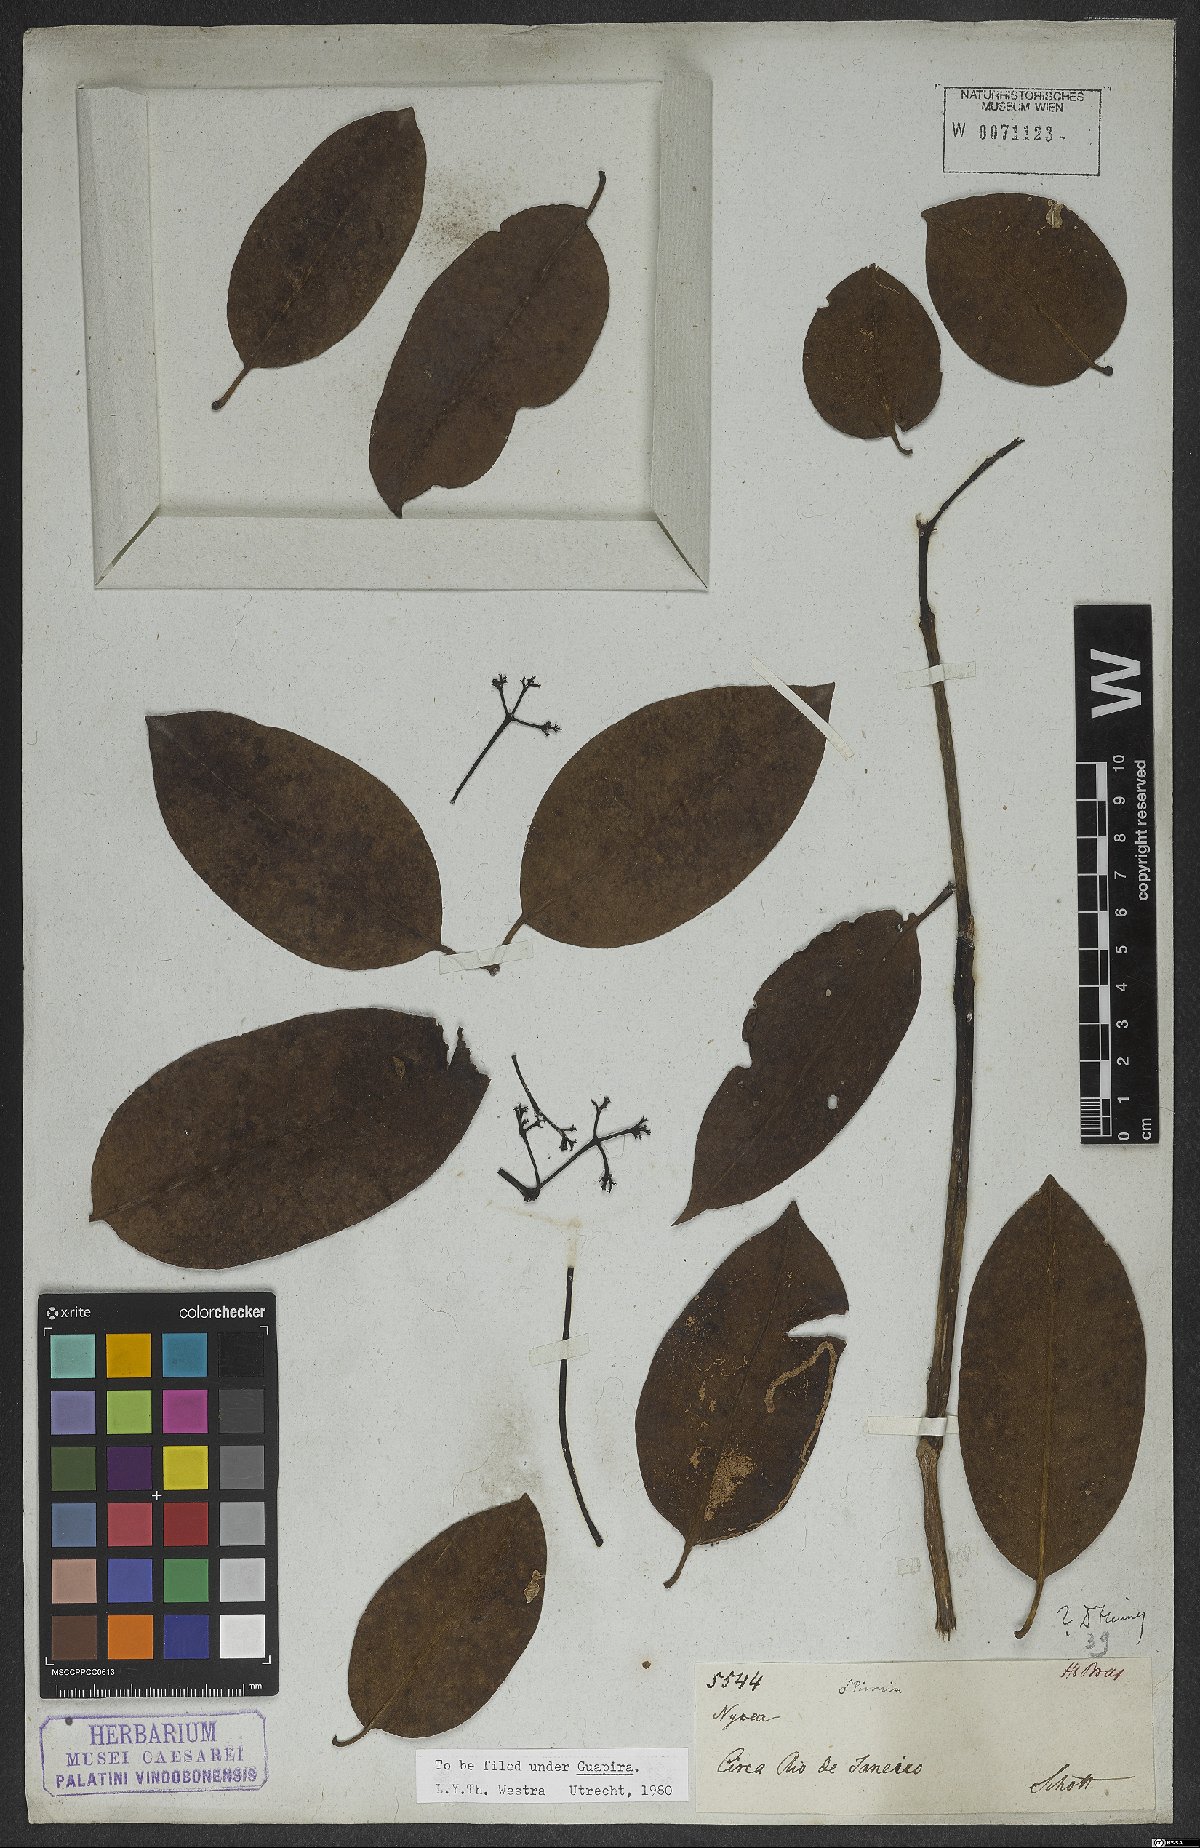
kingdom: Plantae
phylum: Tracheophyta
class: Magnoliopsida
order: Caryophyllales
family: Nyctaginaceae
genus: Guapira
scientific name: Guapira
